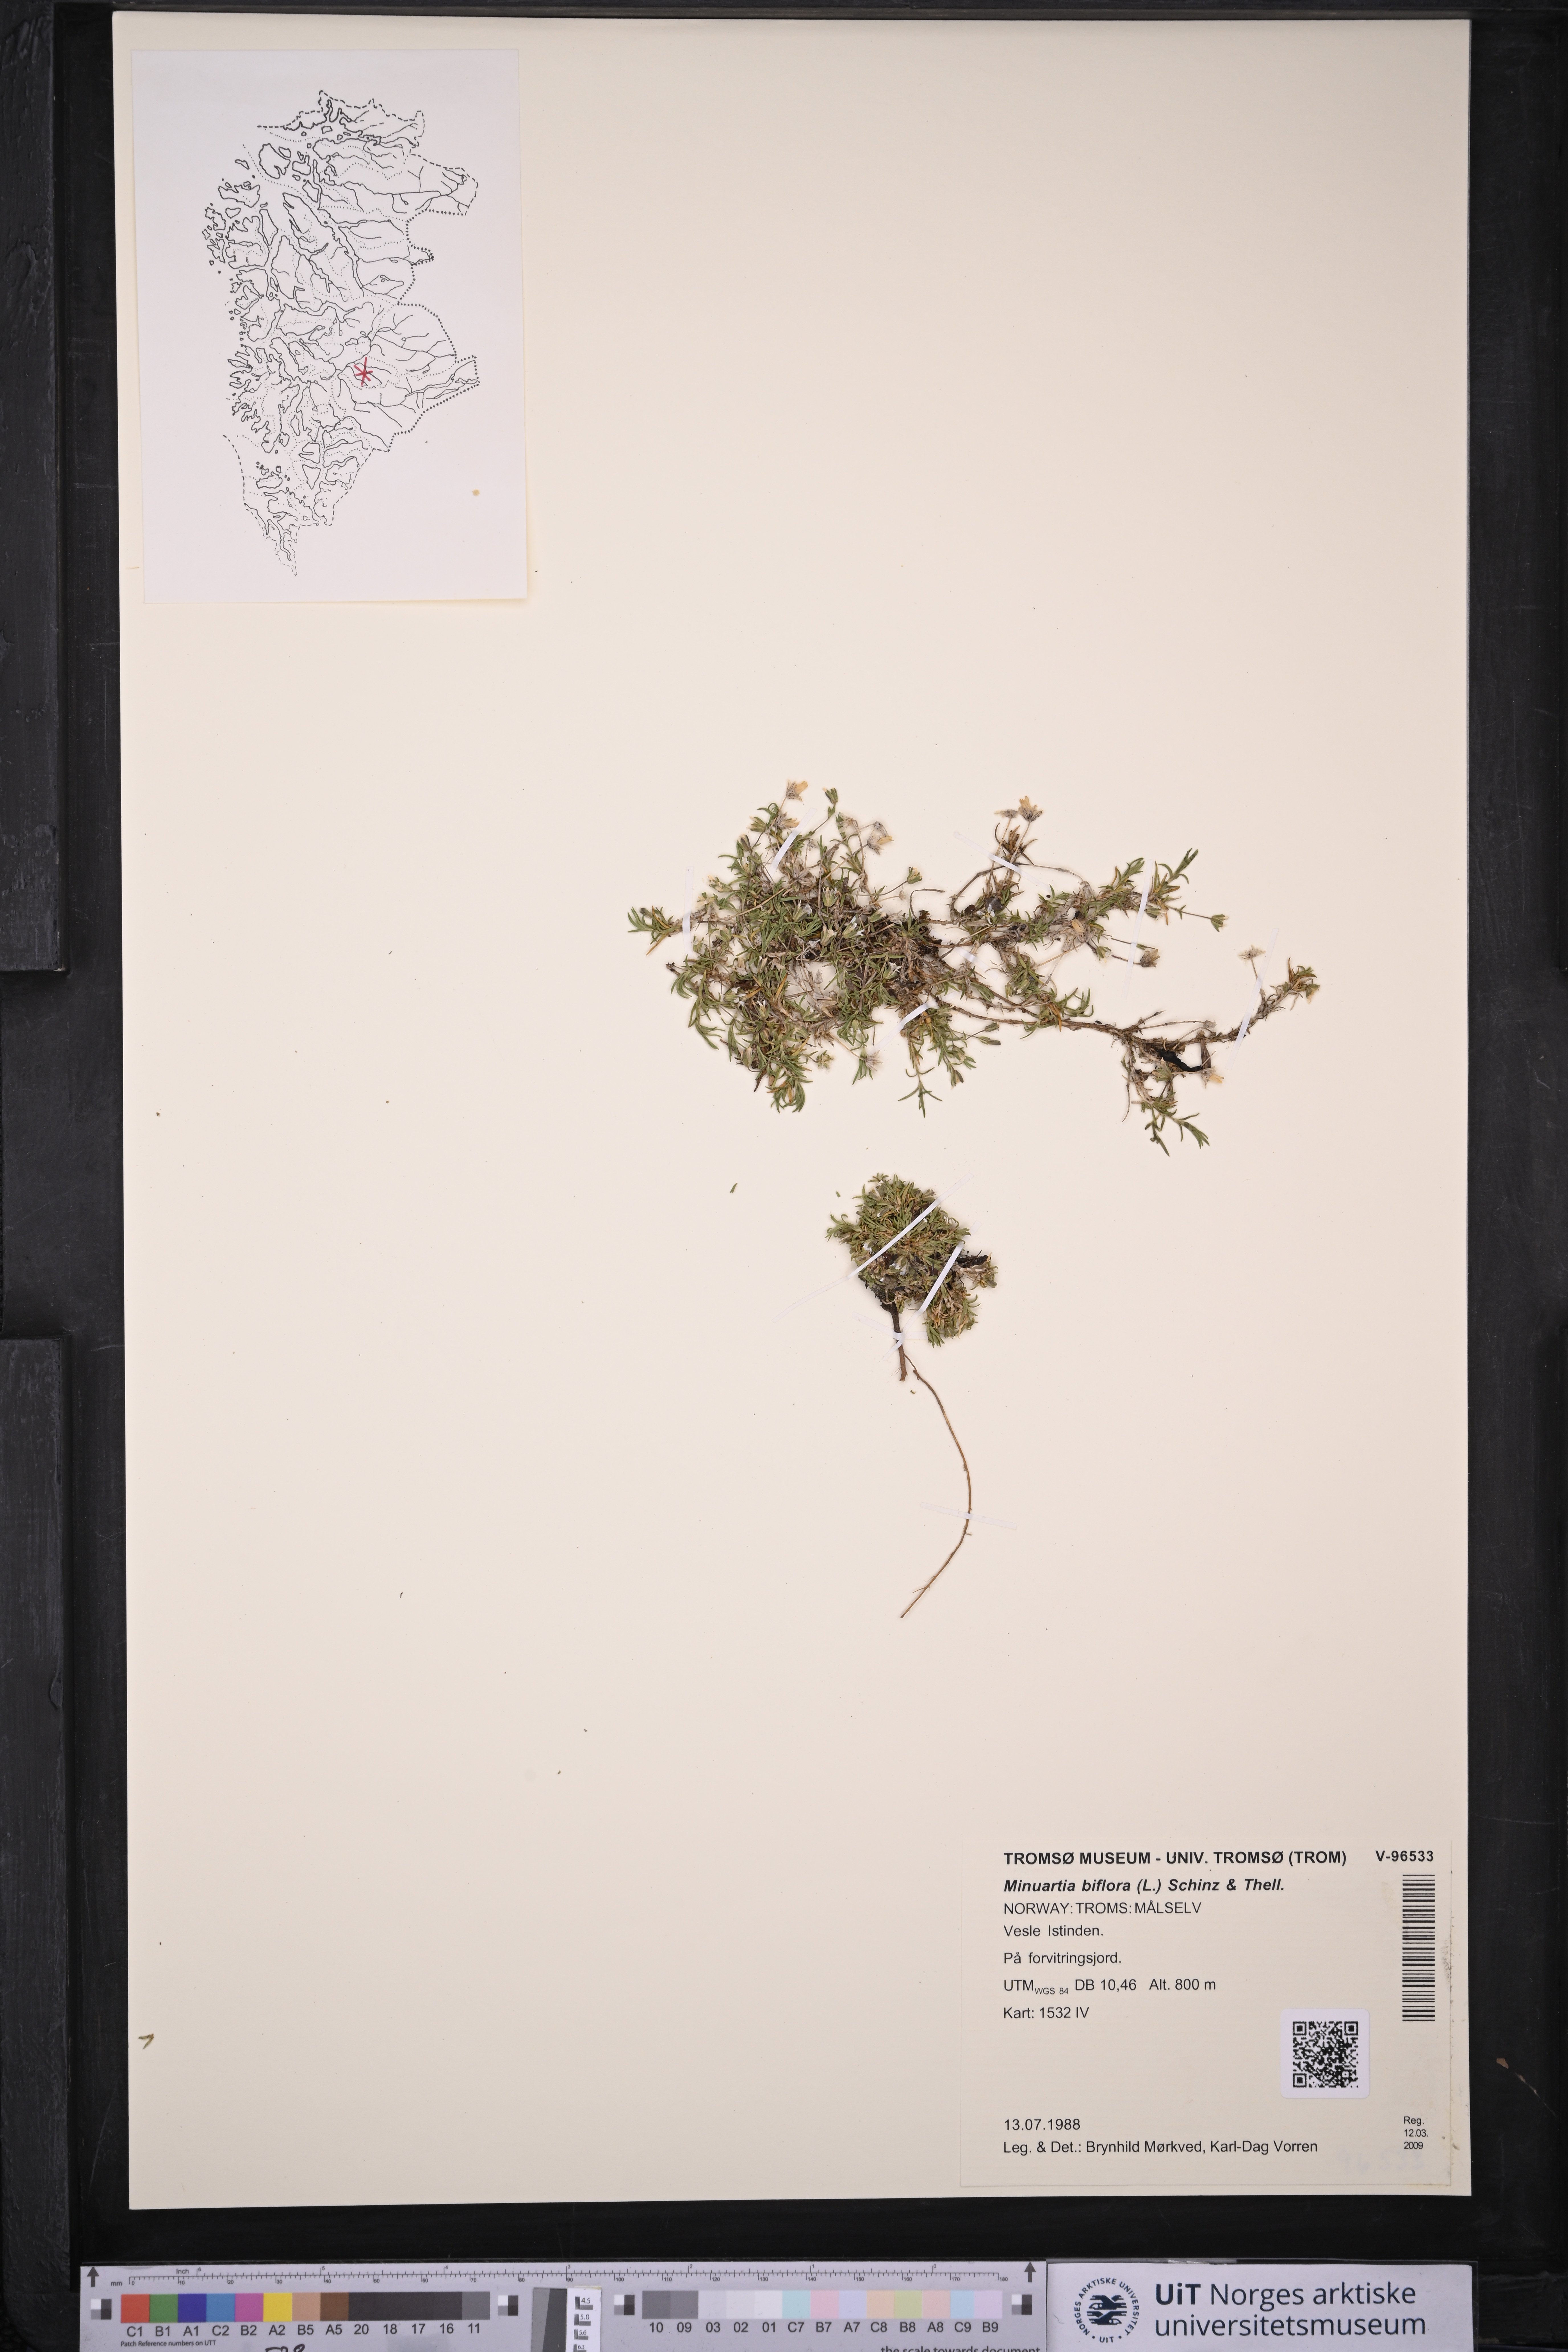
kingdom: Plantae
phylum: Tracheophyta
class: Magnoliopsida
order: Caryophyllales
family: Caryophyllaceae
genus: Cherleria
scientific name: Cherleria biflora
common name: Mountain sandwort
